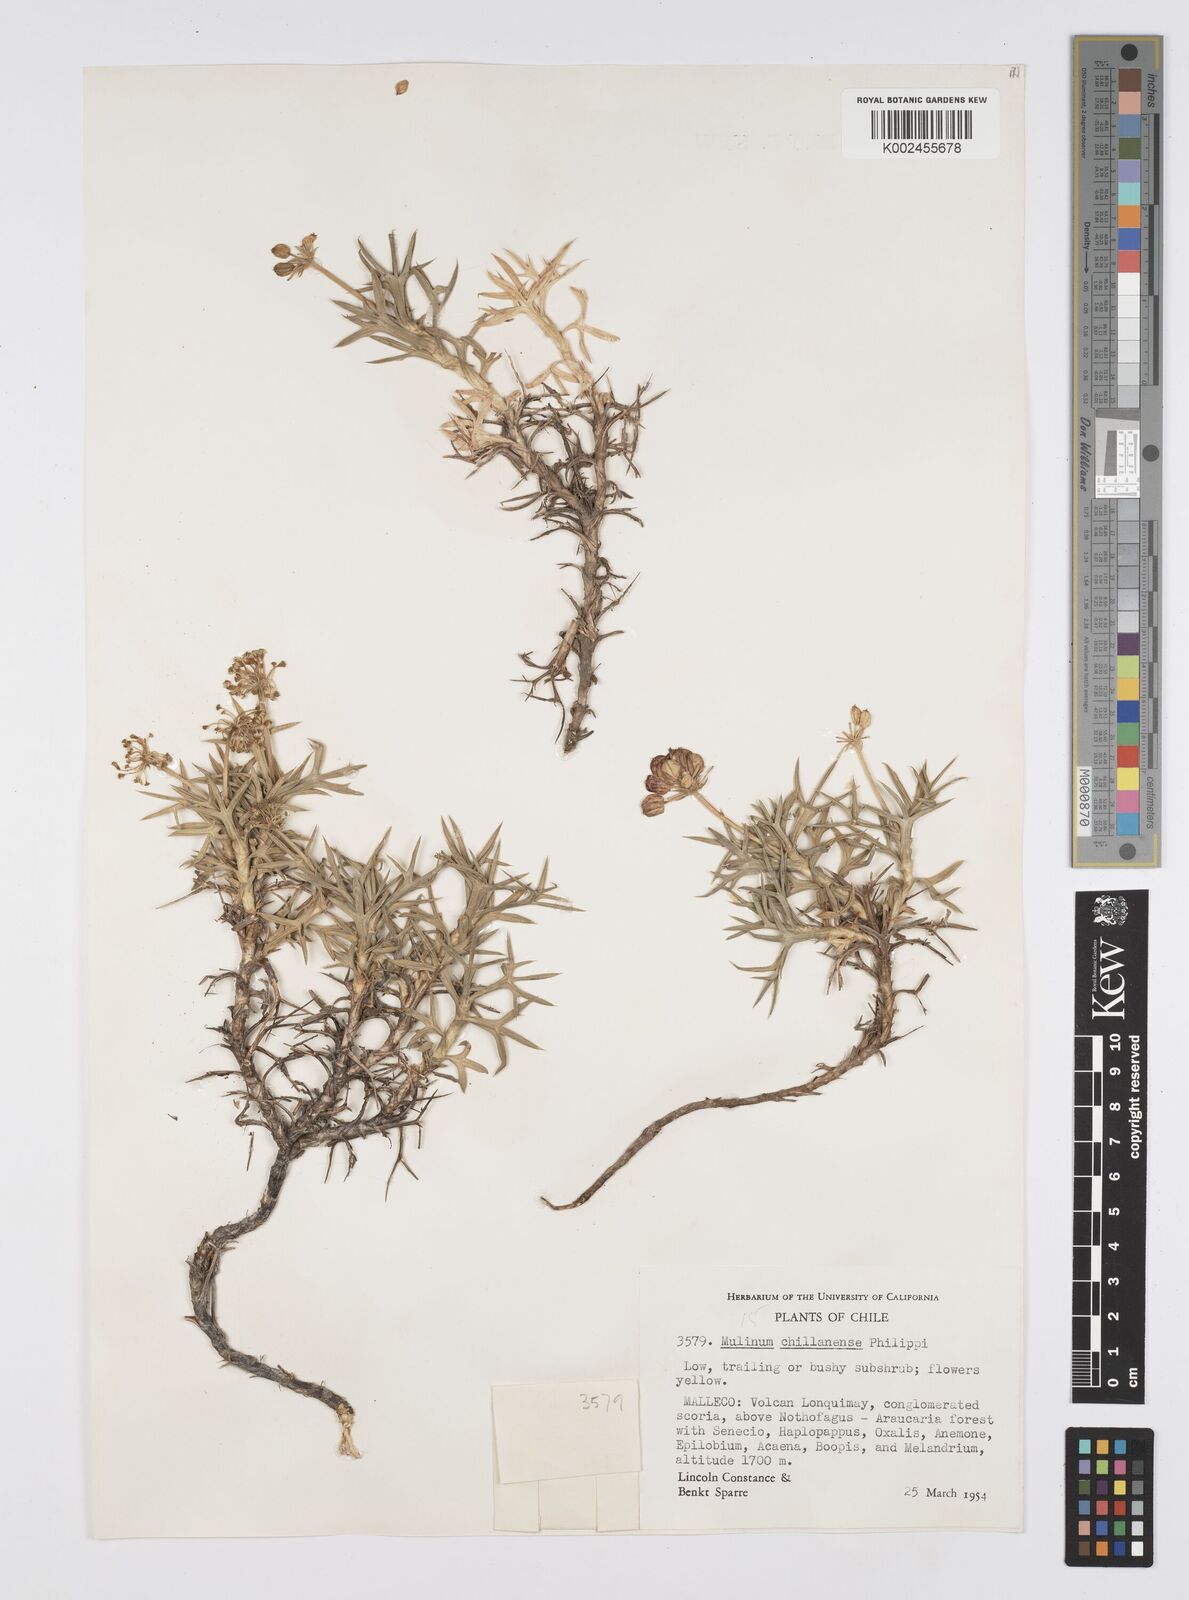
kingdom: Plantae
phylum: Tracheophyta
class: Magnoliopsida
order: Apiales
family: Apiaceae
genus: Azorella
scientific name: Azorella prolifera
